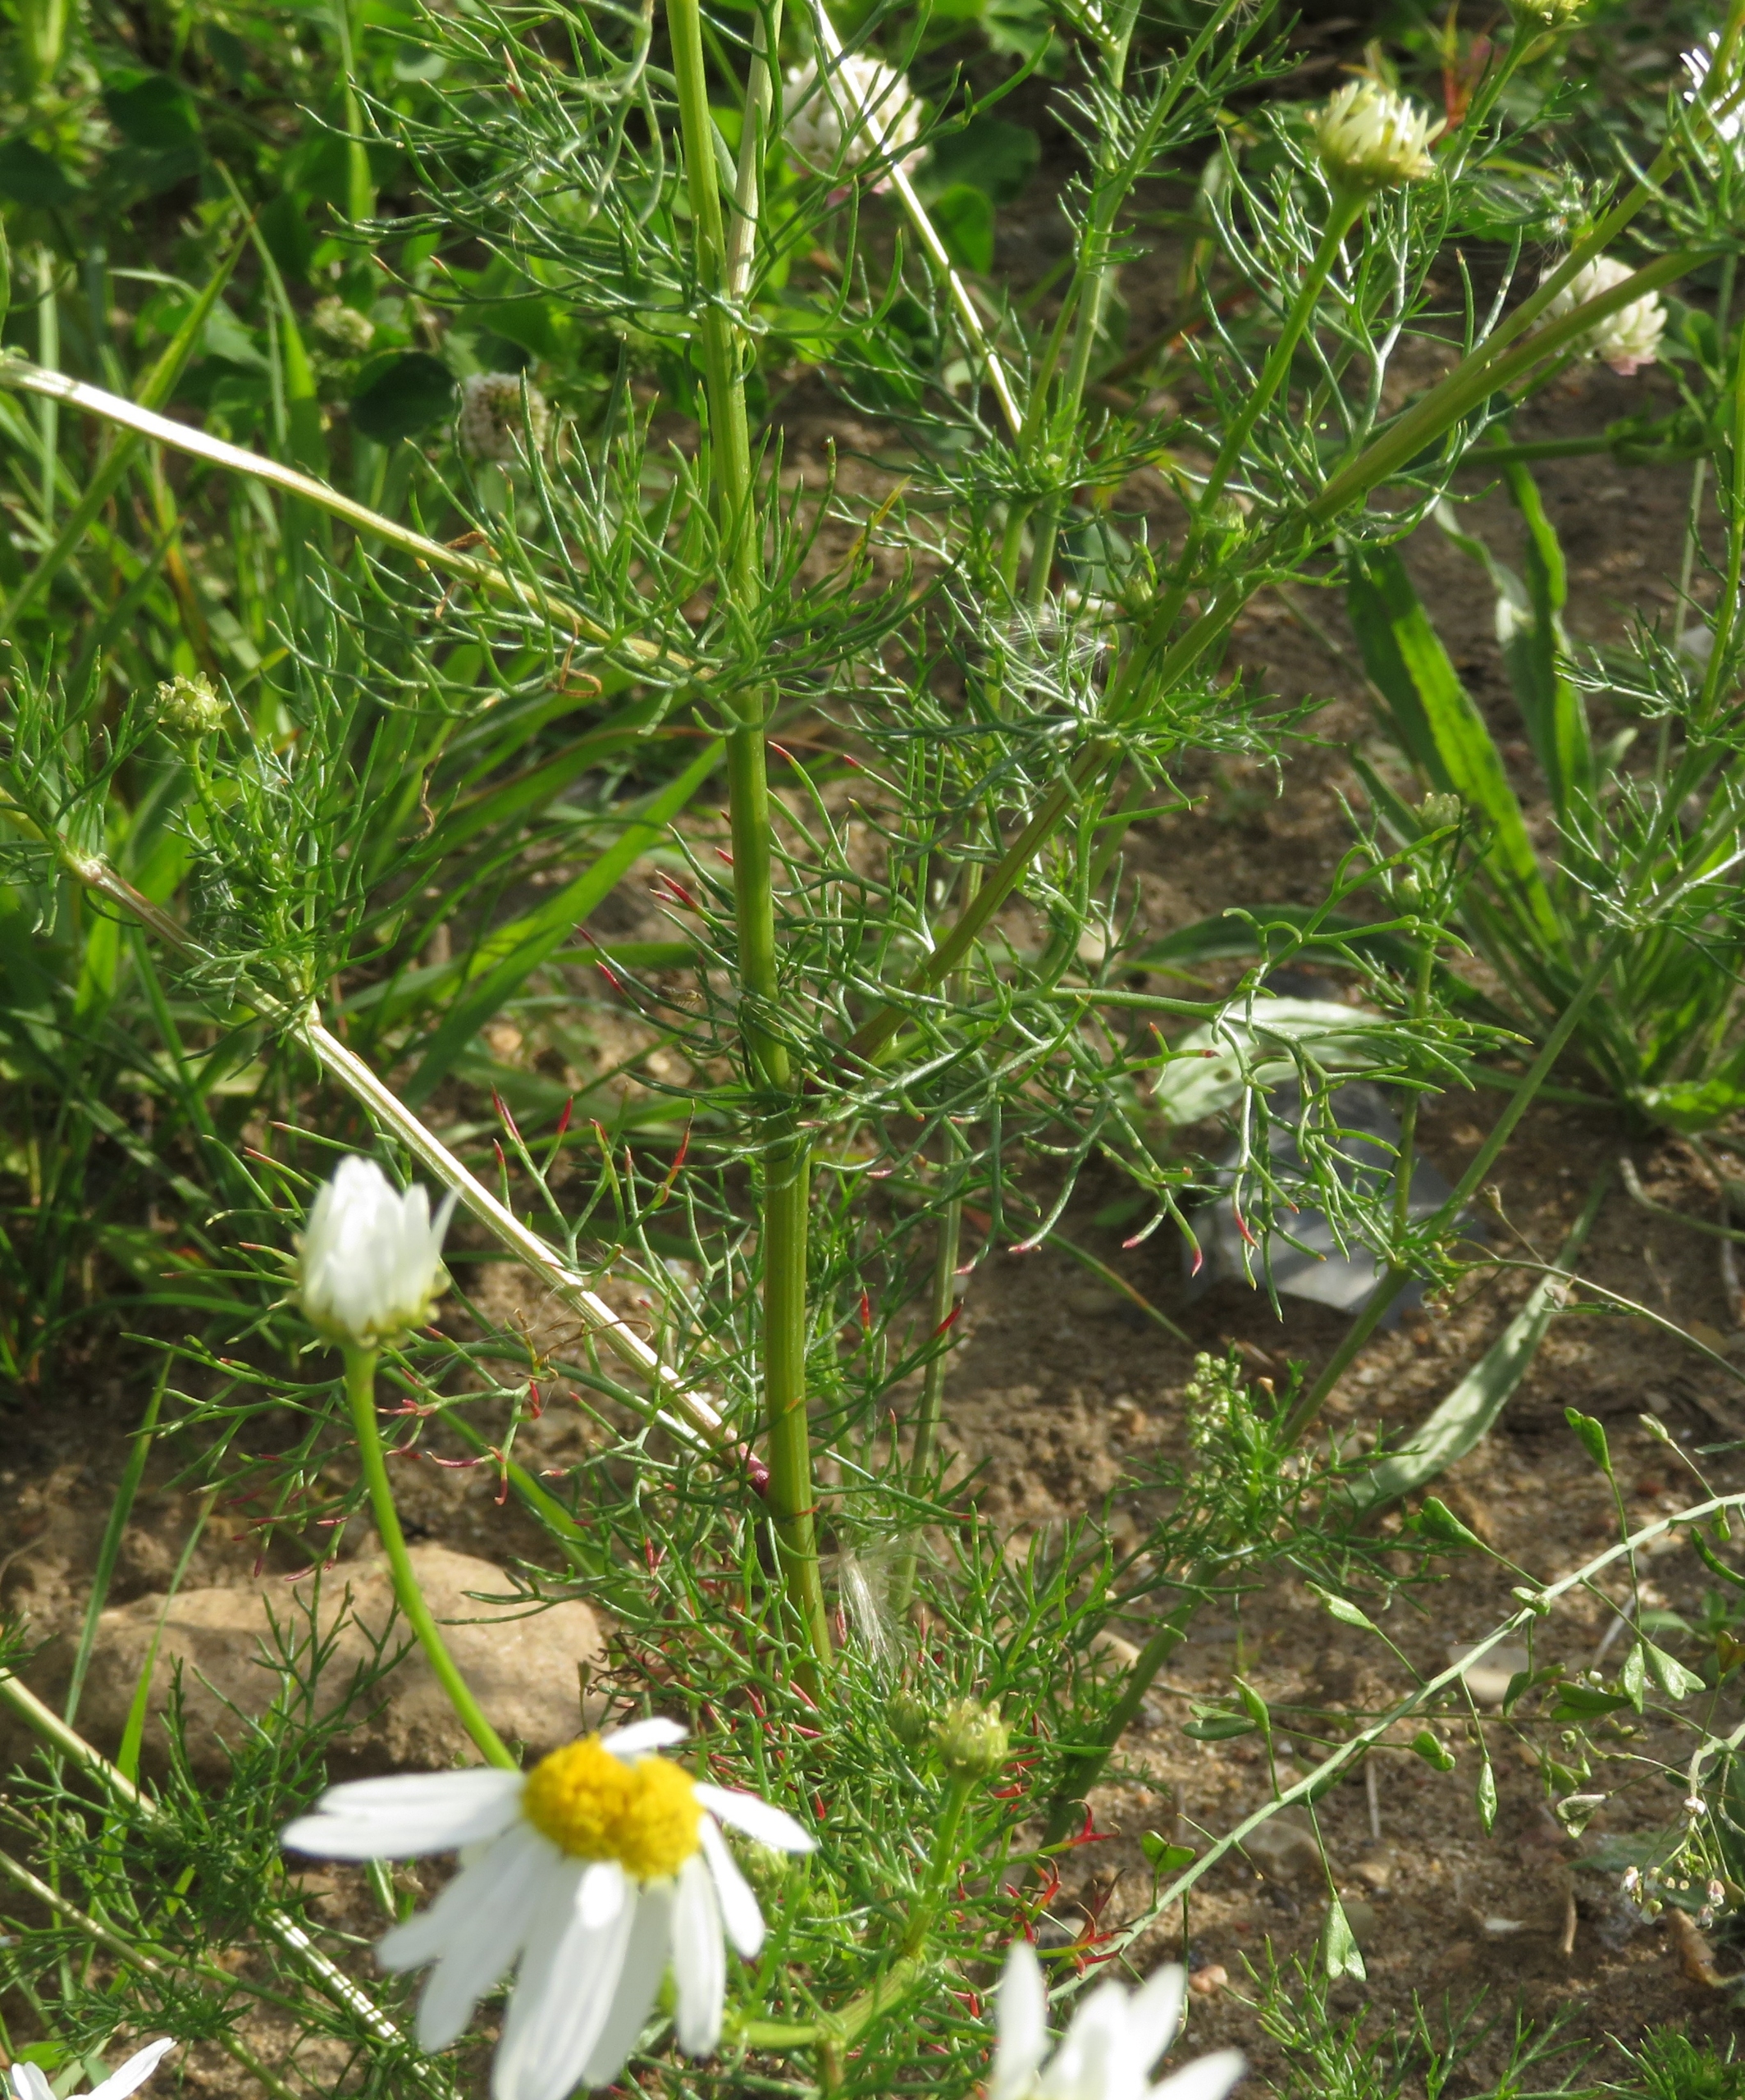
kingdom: Plantae
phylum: Tracheophyta
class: Magnoliopsida
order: Asterales
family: Asteraceae
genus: Tripleurospermum
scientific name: Tripleurospermum inodorum
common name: Lugtløs kamille
